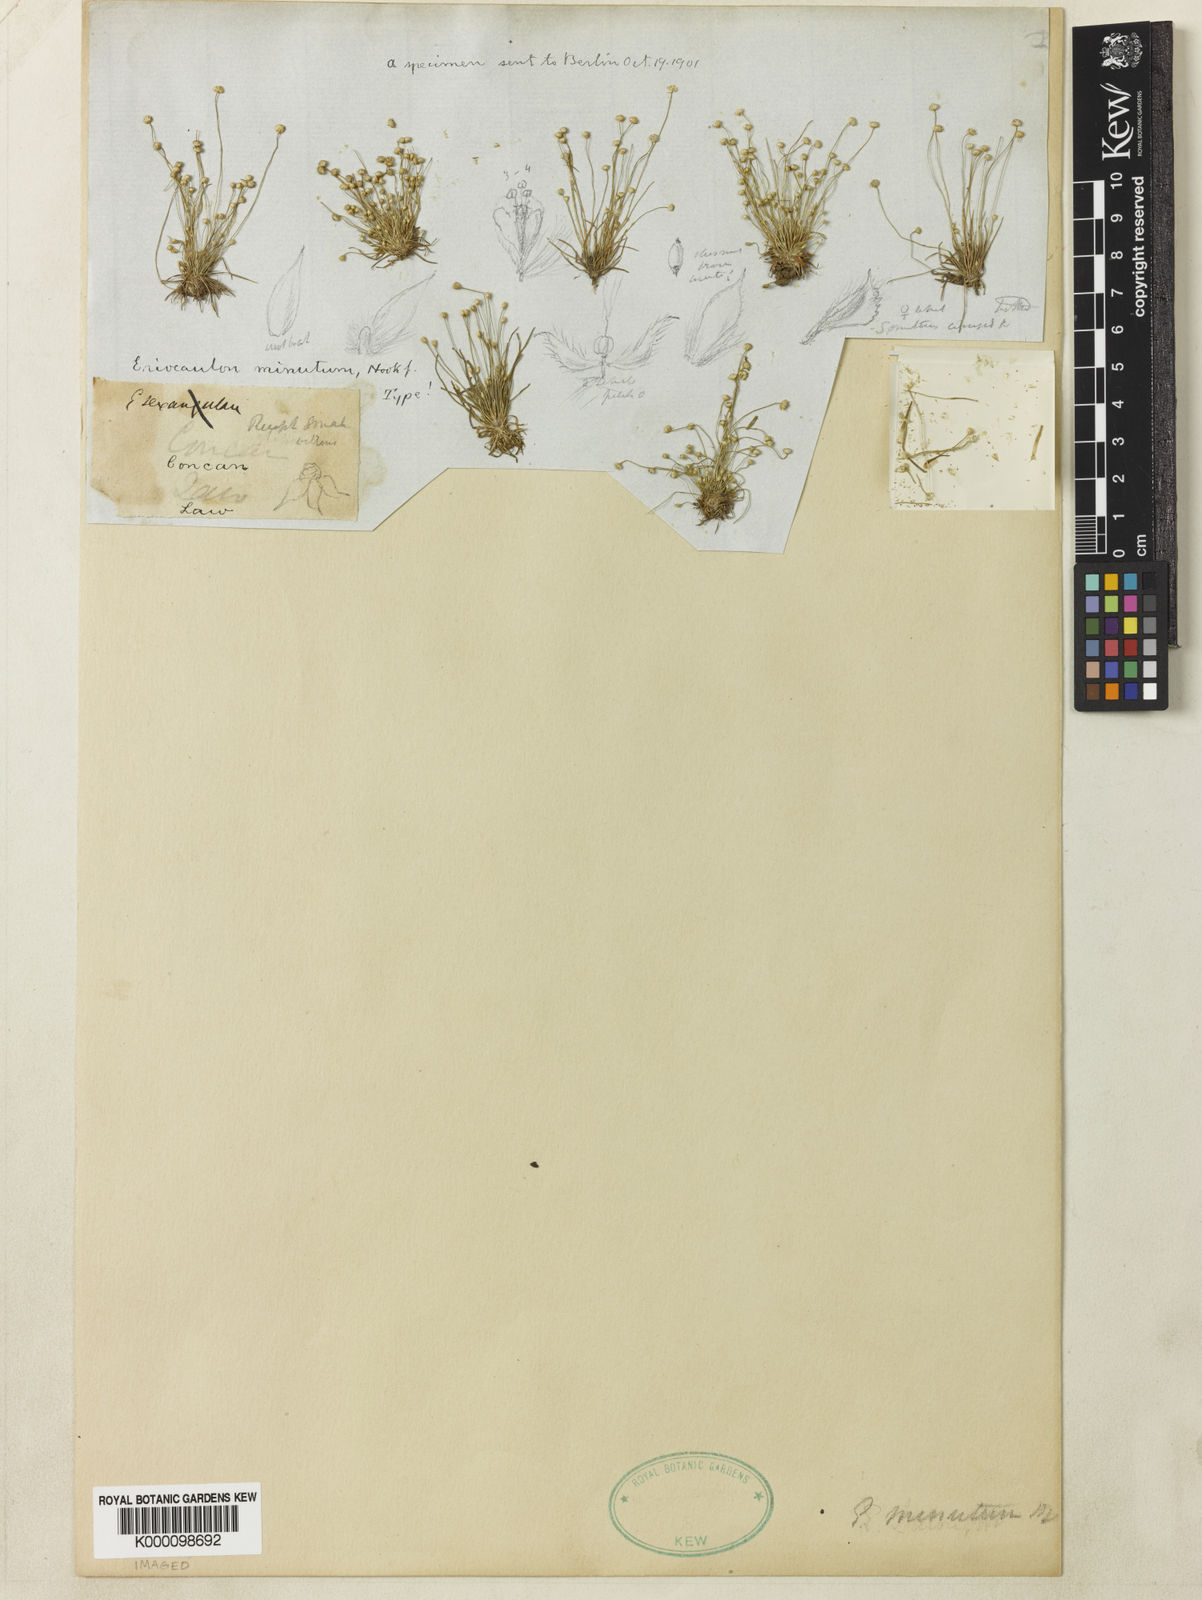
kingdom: Plantae
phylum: Tracheophyta
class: Liliopsida
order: Poales
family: Eriocaulaceae
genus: Eriocaulon
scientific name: Eriocaulon minutum
